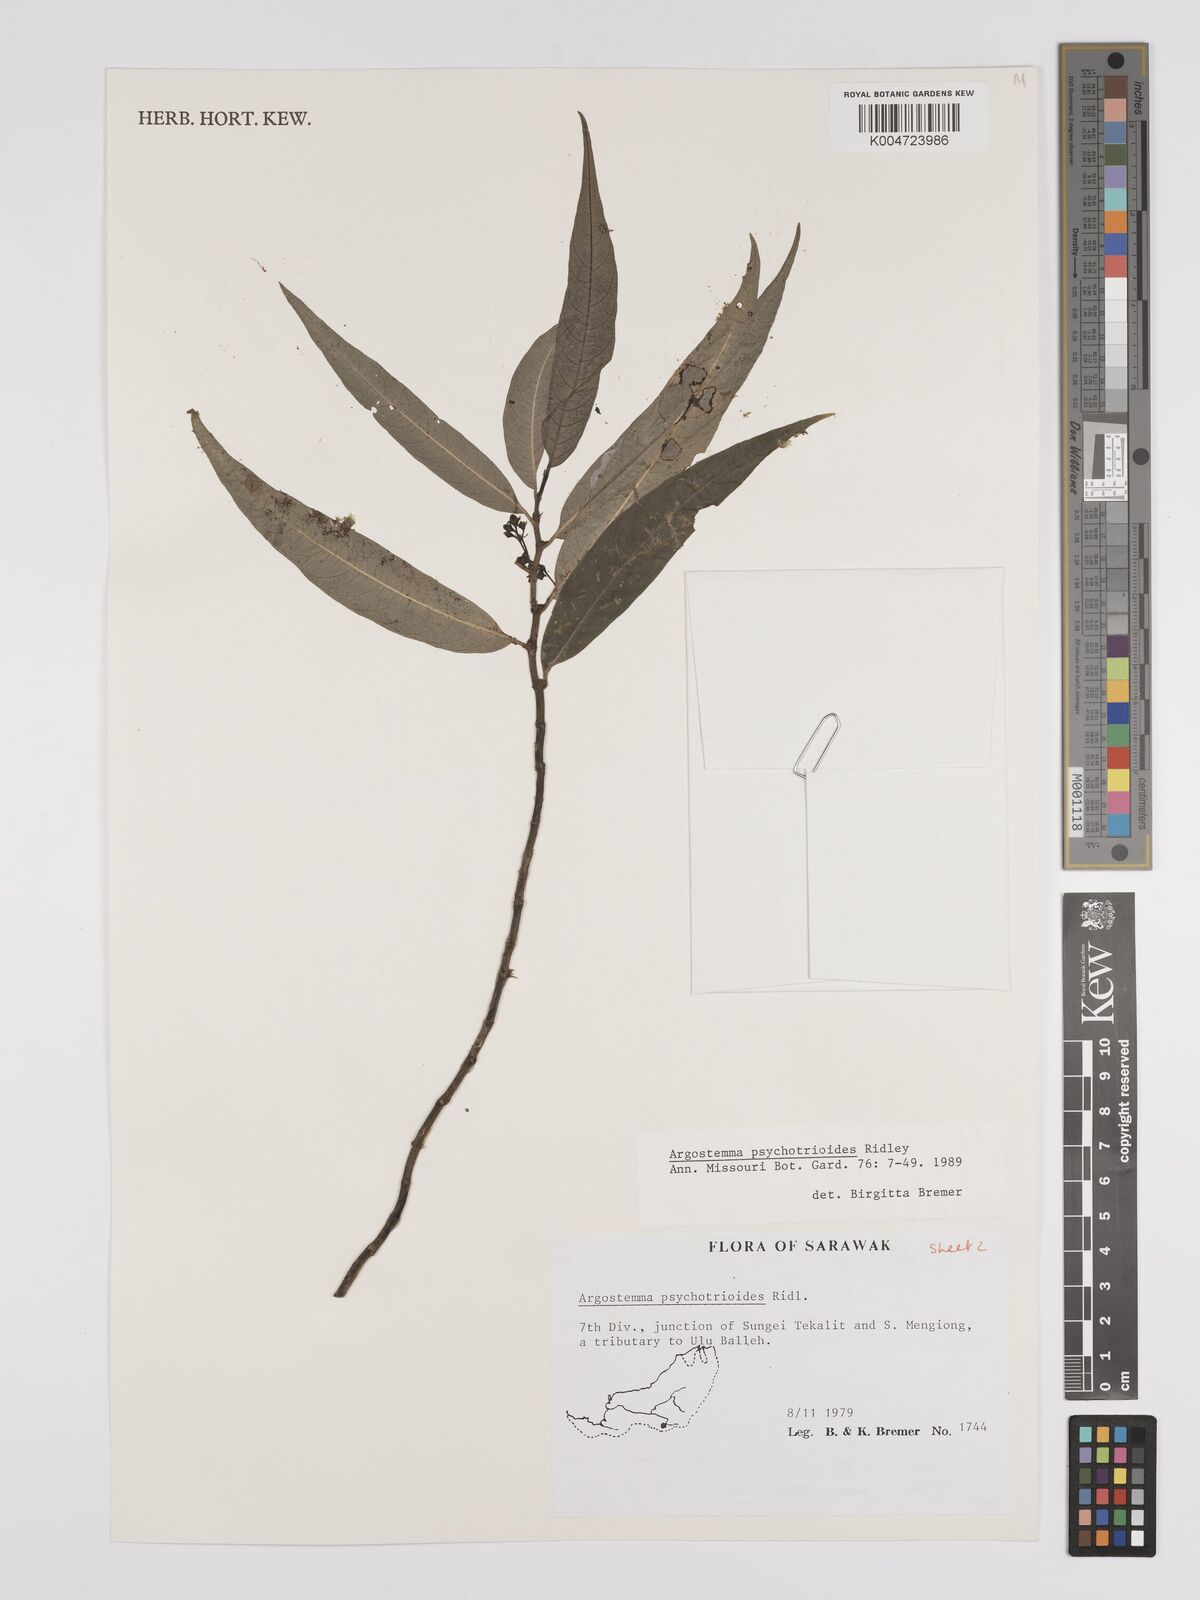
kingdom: Plantae
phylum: Tracheophyta
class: Magnoliopsida
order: Gentianales
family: Rubiaceae
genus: Argostemma
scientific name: Argostemma psychotrioides
